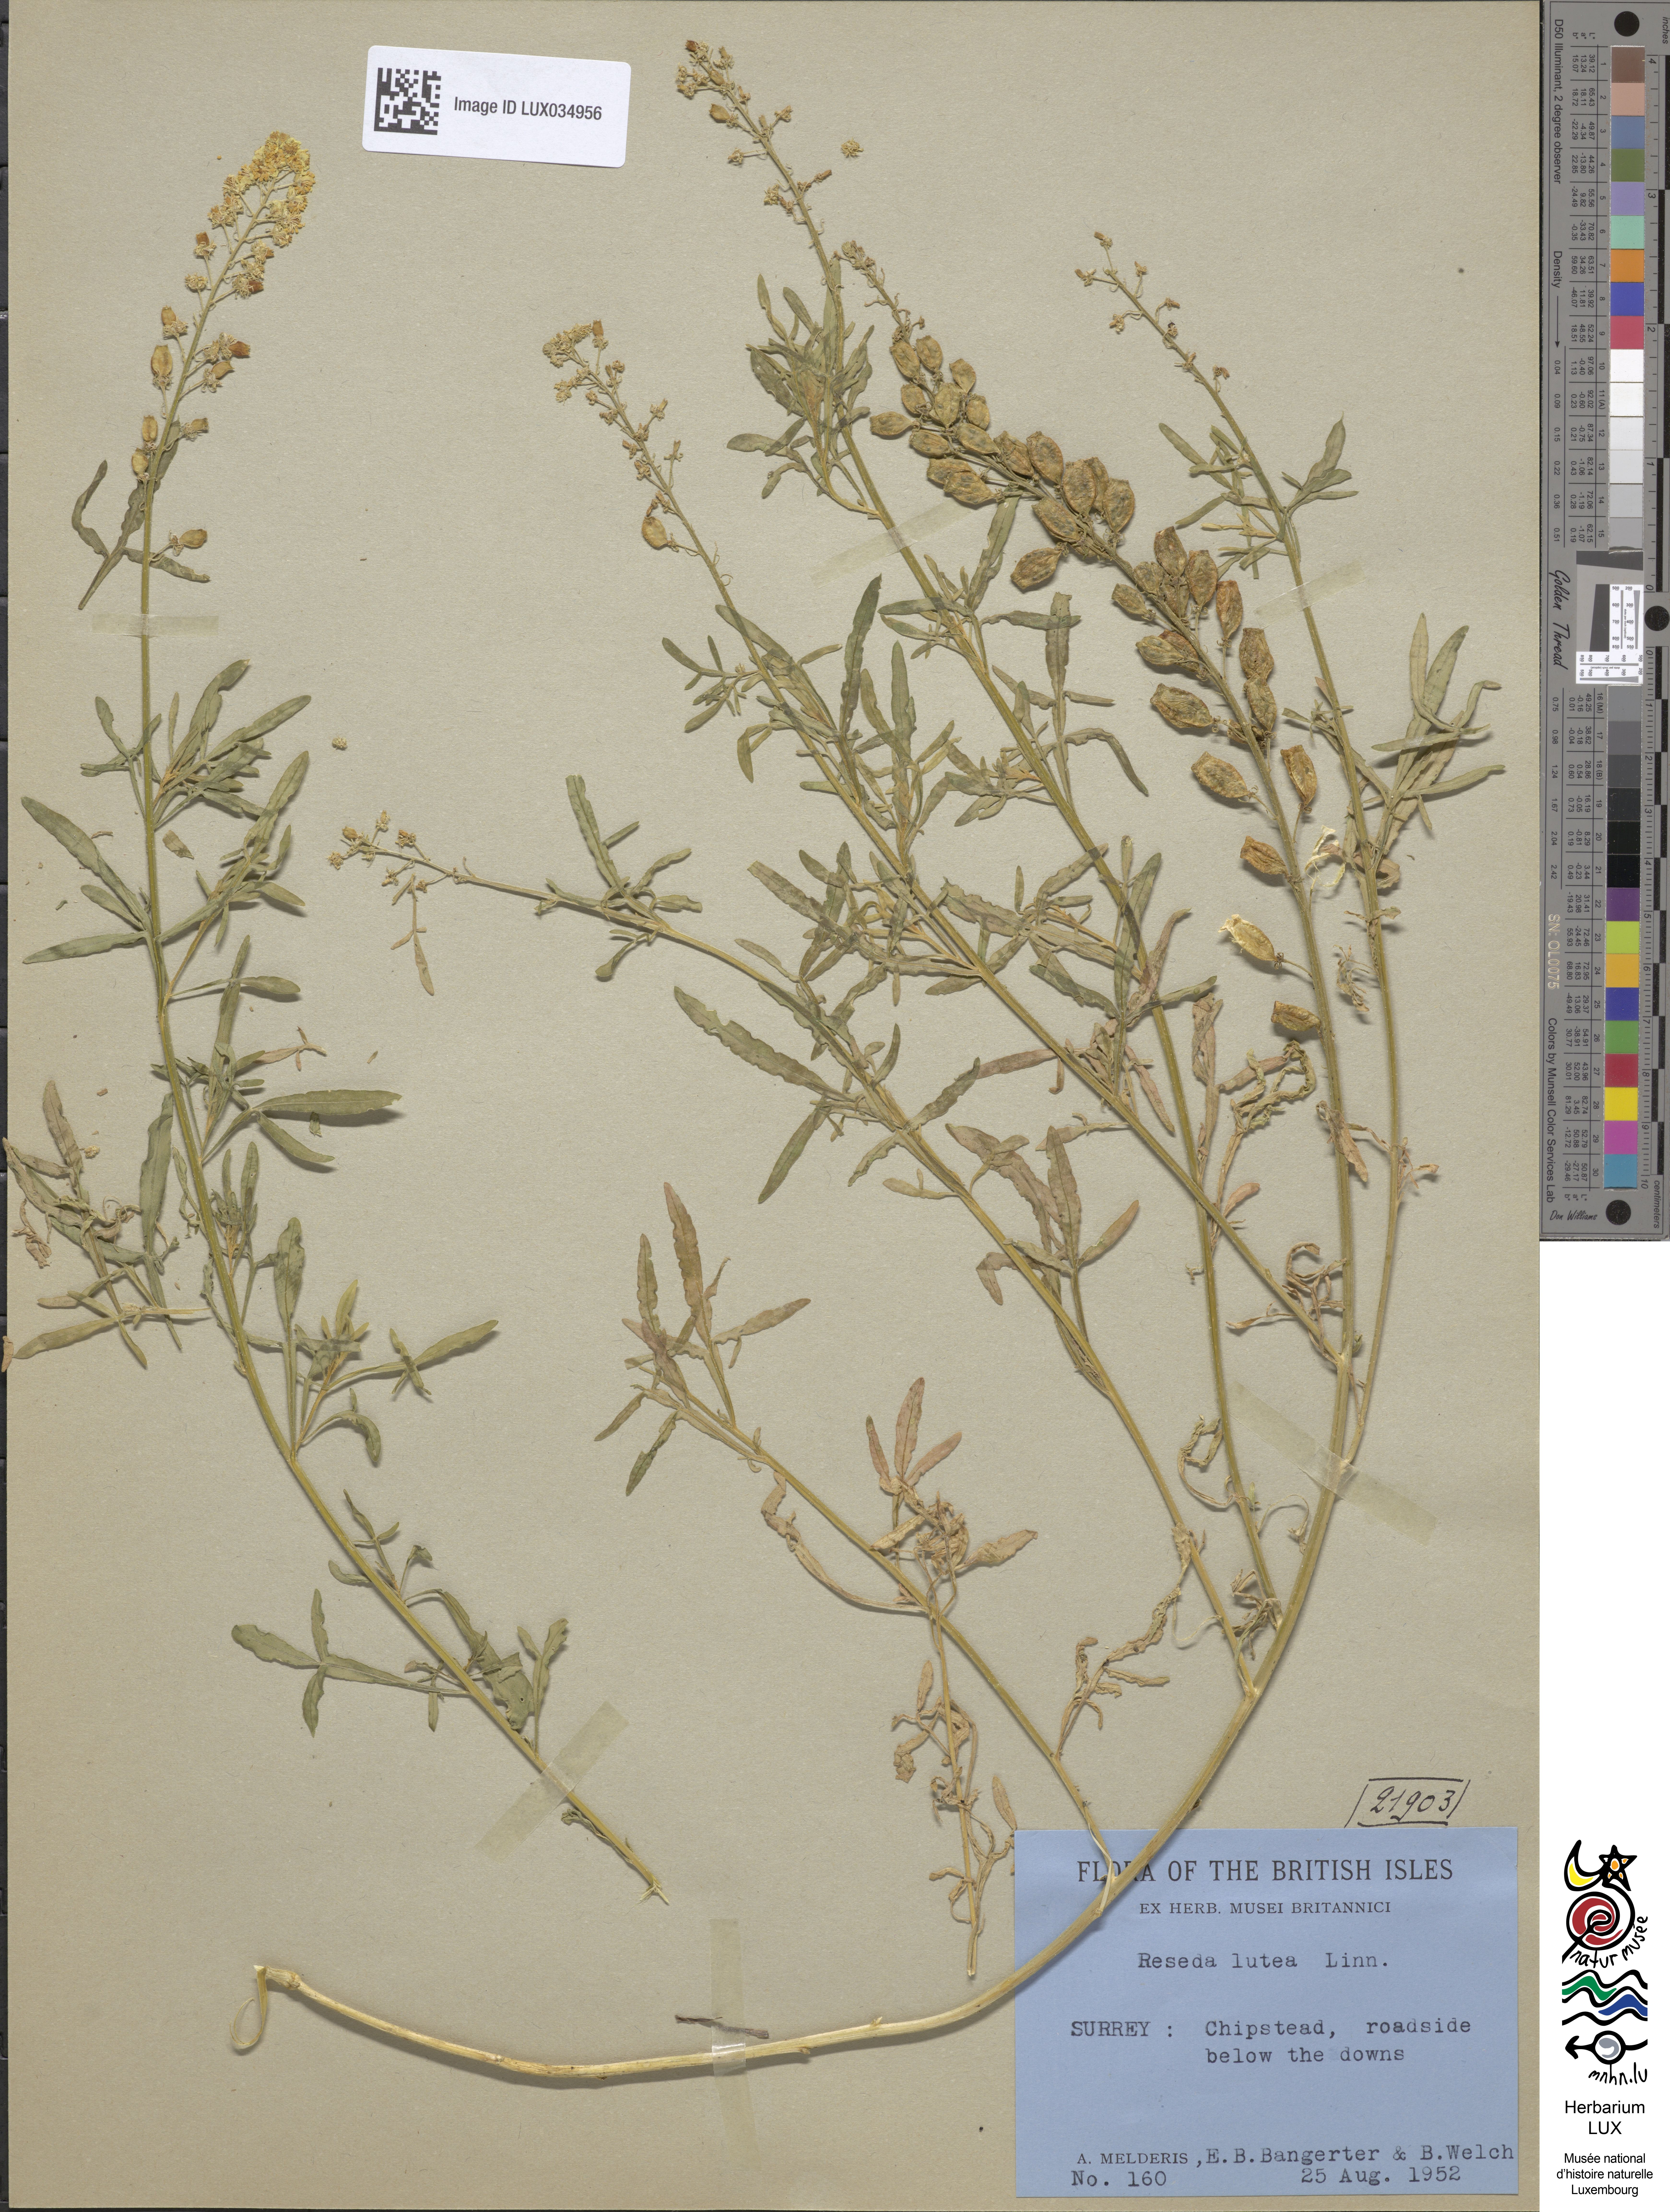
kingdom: Plantae
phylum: Tracheophyta
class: Magnoliopsida
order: Brassicales
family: Resedaceae
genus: Reseda
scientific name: Reseda lutea
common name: Wild mignonette
